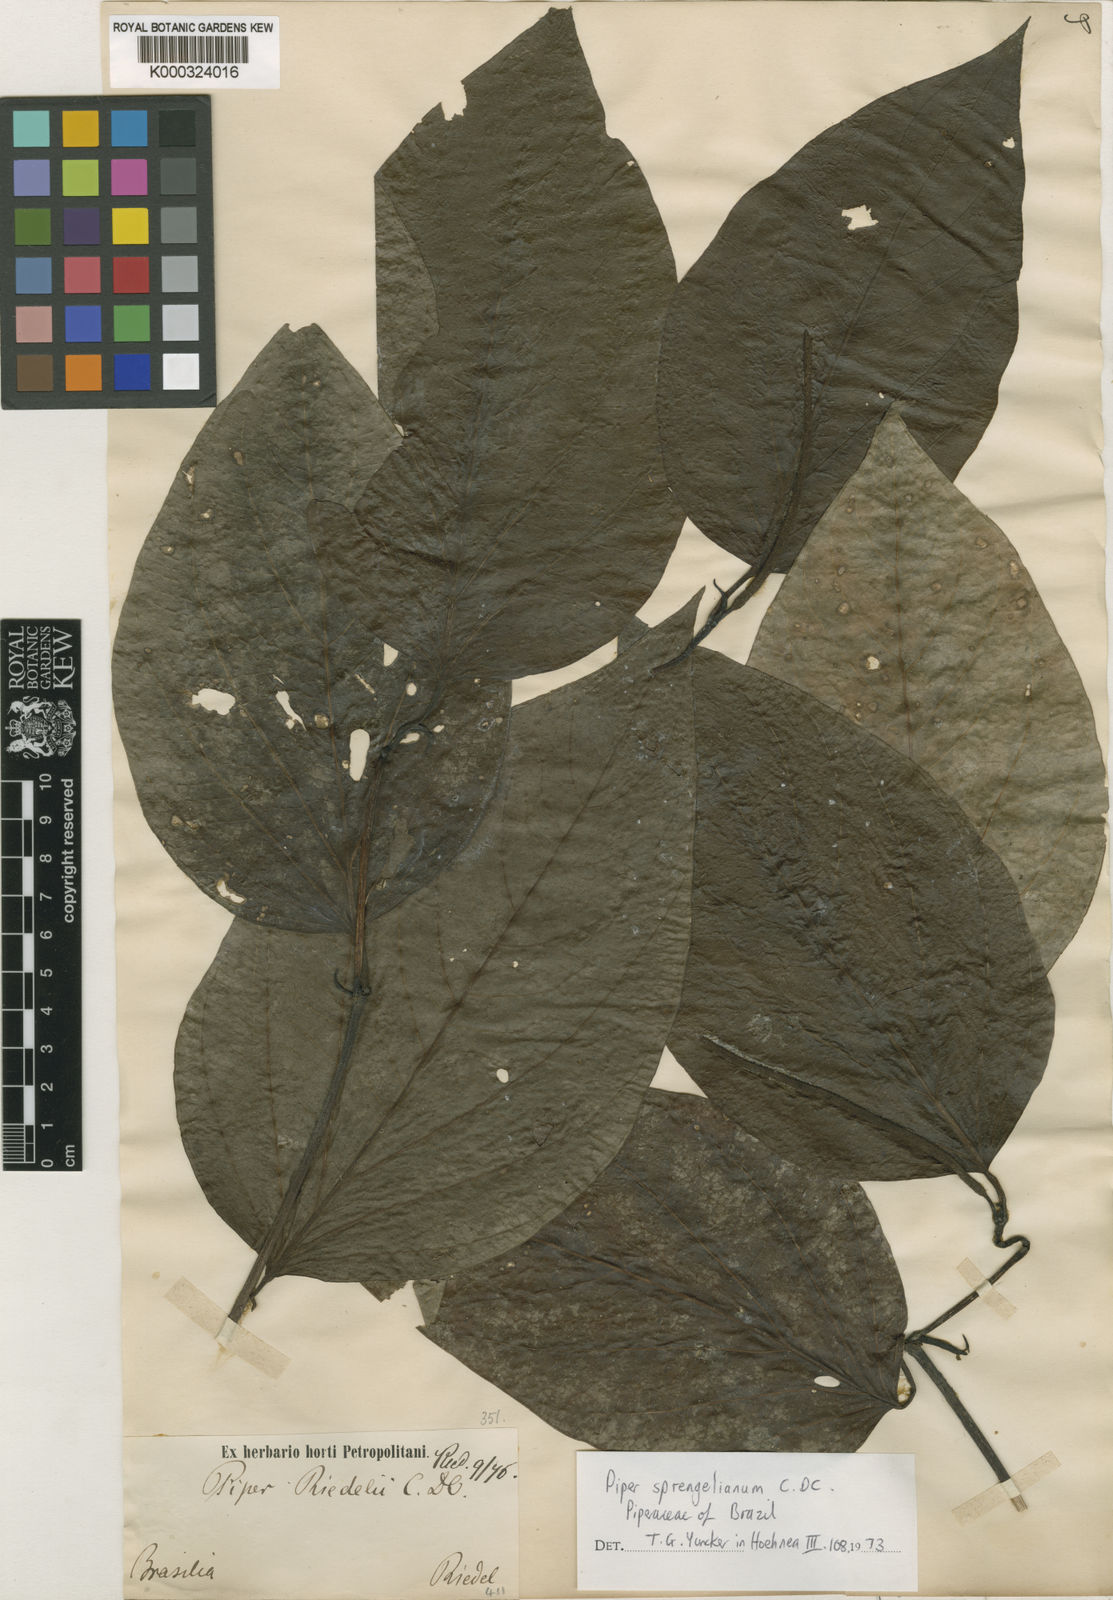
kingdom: Plantae
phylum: Tracheophyta
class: Magnoliopsida
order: Piperales
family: Piperaceae
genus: Piper
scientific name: Piper sprengelianum
